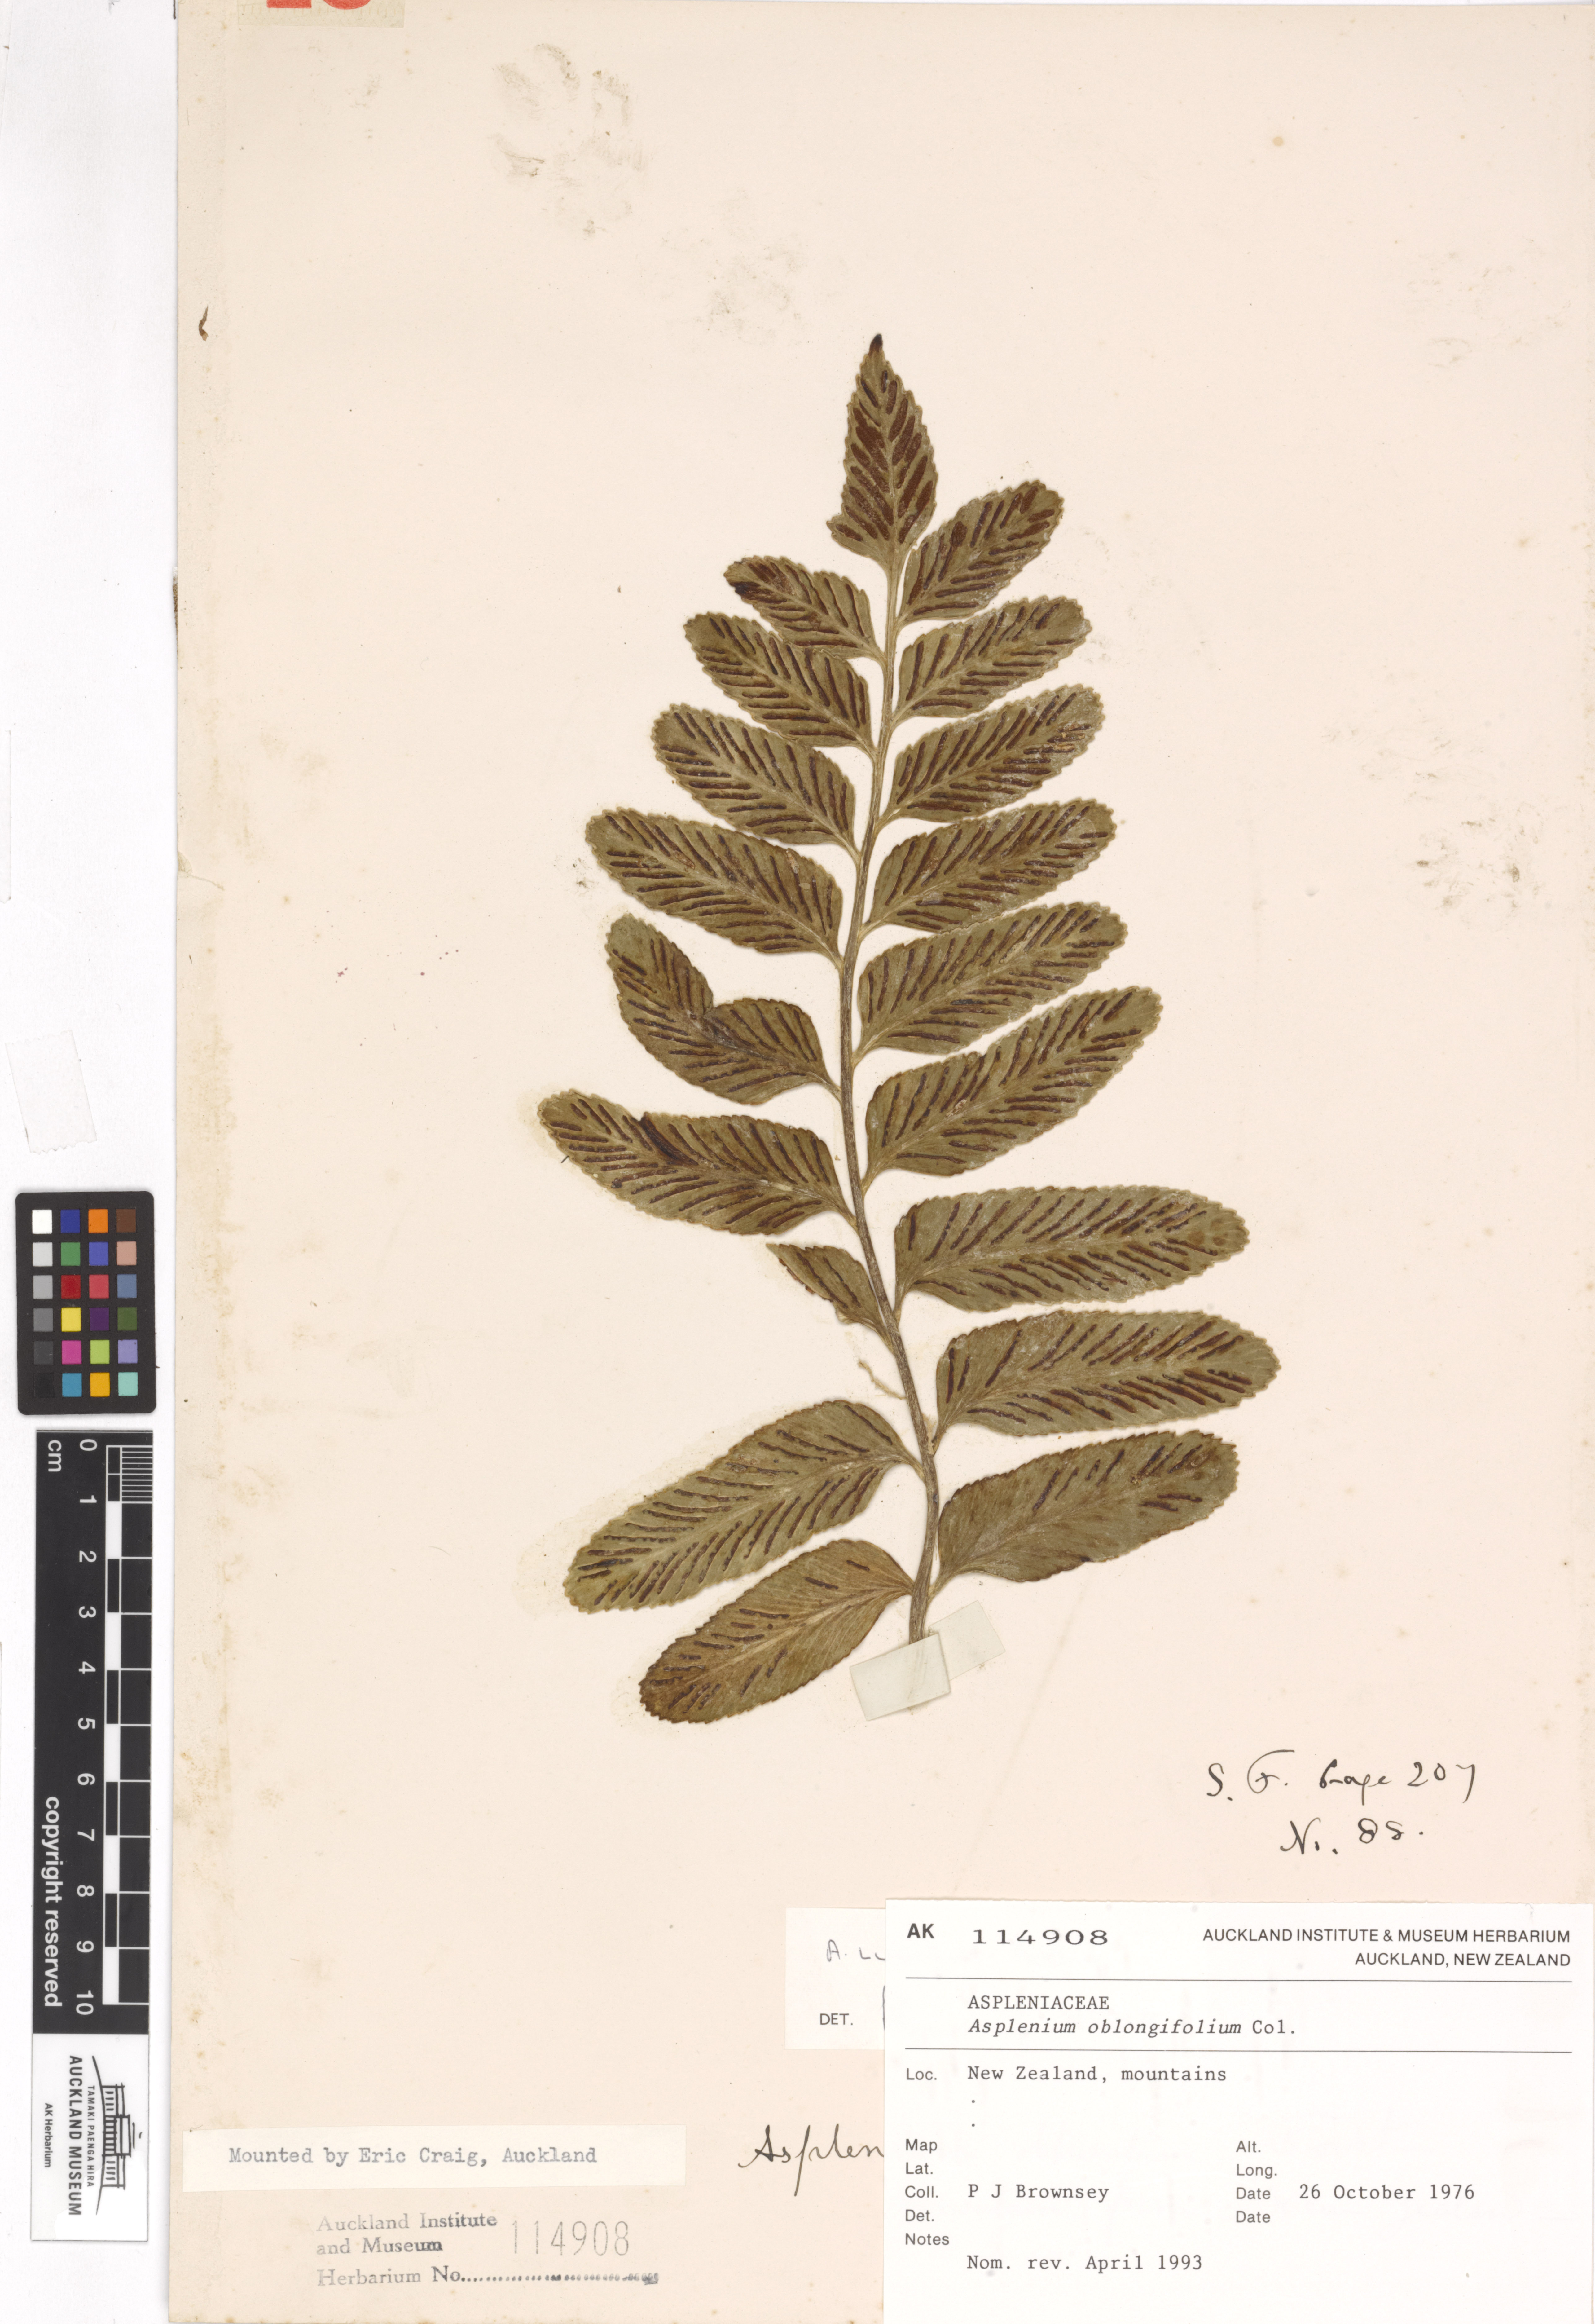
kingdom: Plantae
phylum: Tracheophyta
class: Polypodiopsida
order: Polypodiales
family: Aspleniaceae
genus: Asplenium
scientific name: Asplenium obtusatum
